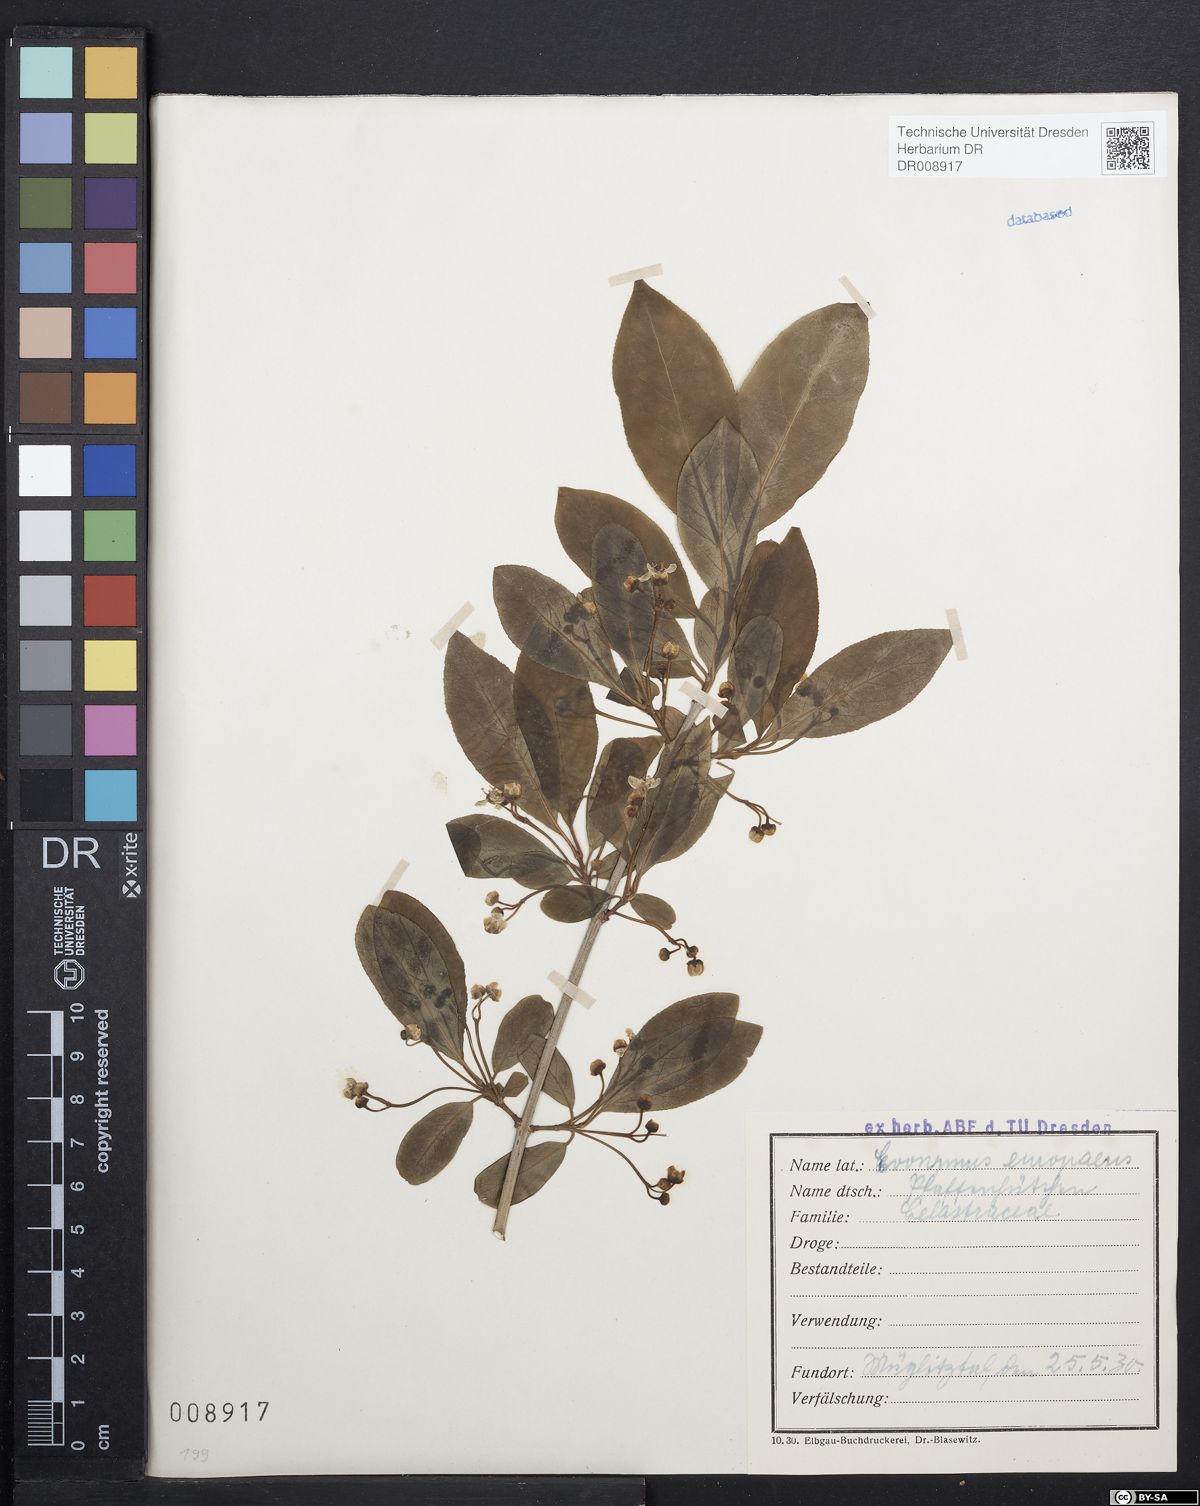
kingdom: Plantae
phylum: Tracheophyta
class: Magnoliopsida
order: Celastrales
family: Celastraceae
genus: Euonymus
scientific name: Euonymus europaeus
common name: Spindle
